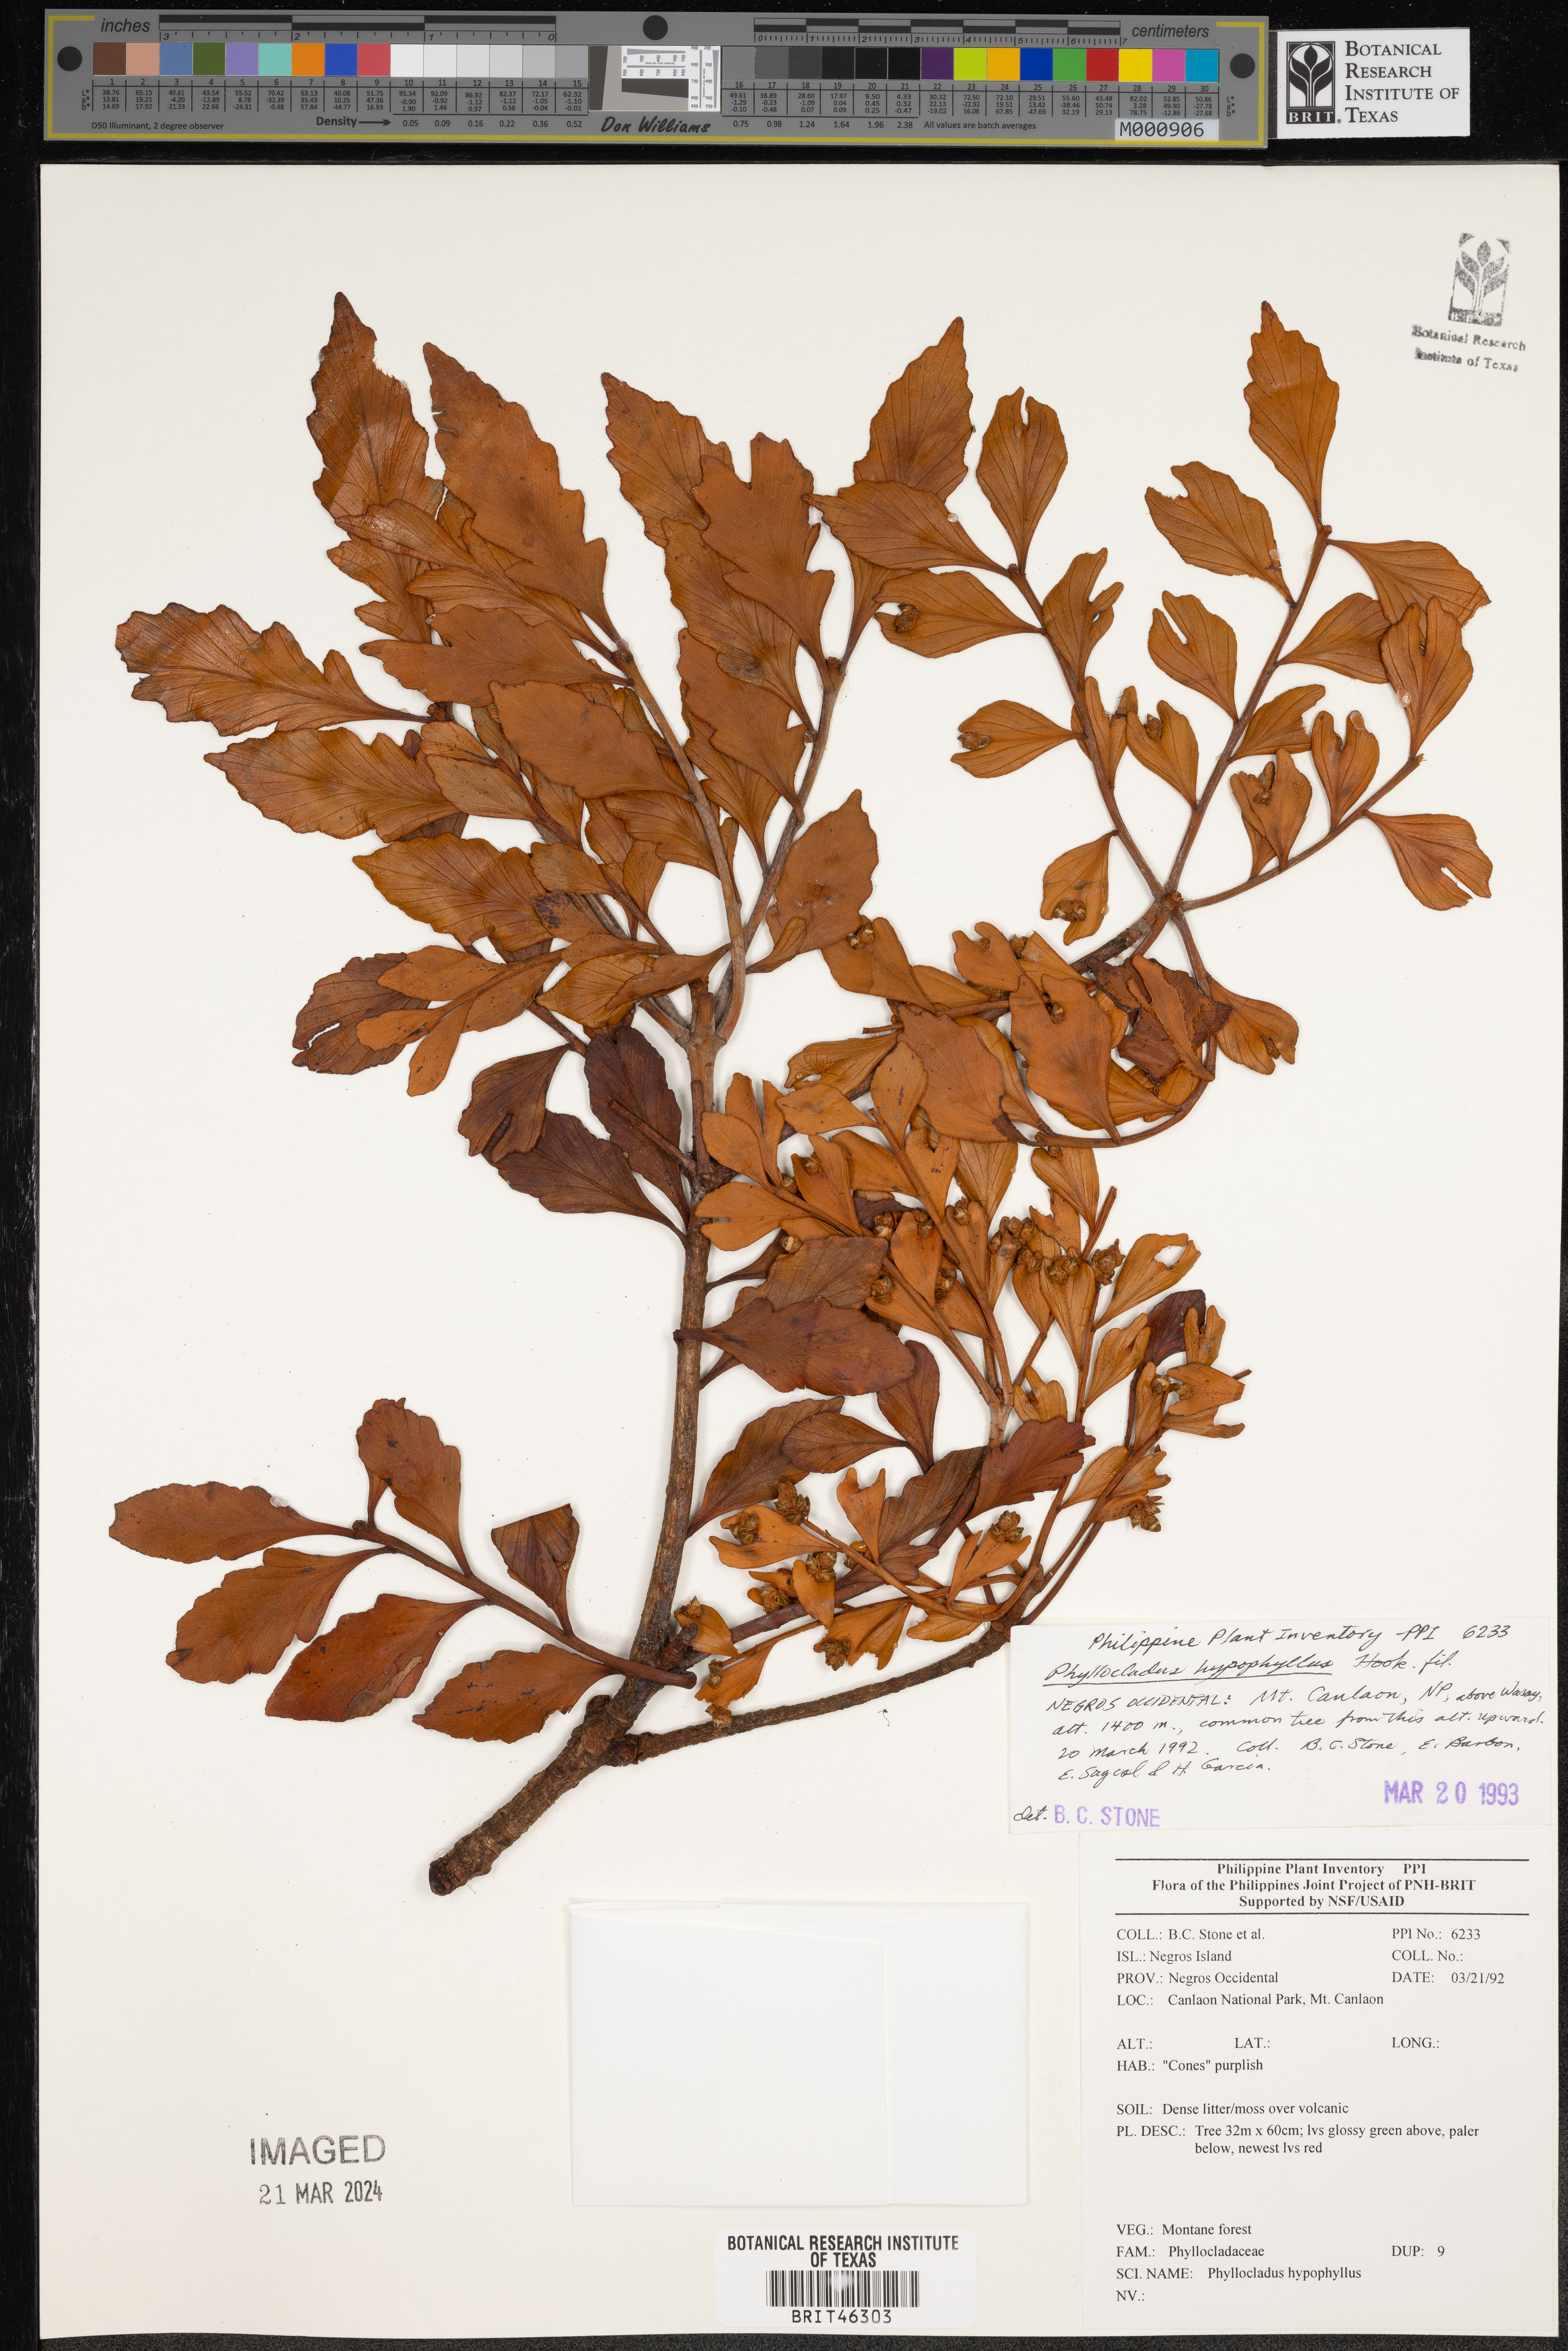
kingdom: Plantae
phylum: Tracheophyta
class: Pinopsida
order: Pinales
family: Phyllocladaceae
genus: Phyllocladus
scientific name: Phyllocladus hypophyllus
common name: Celery pine
